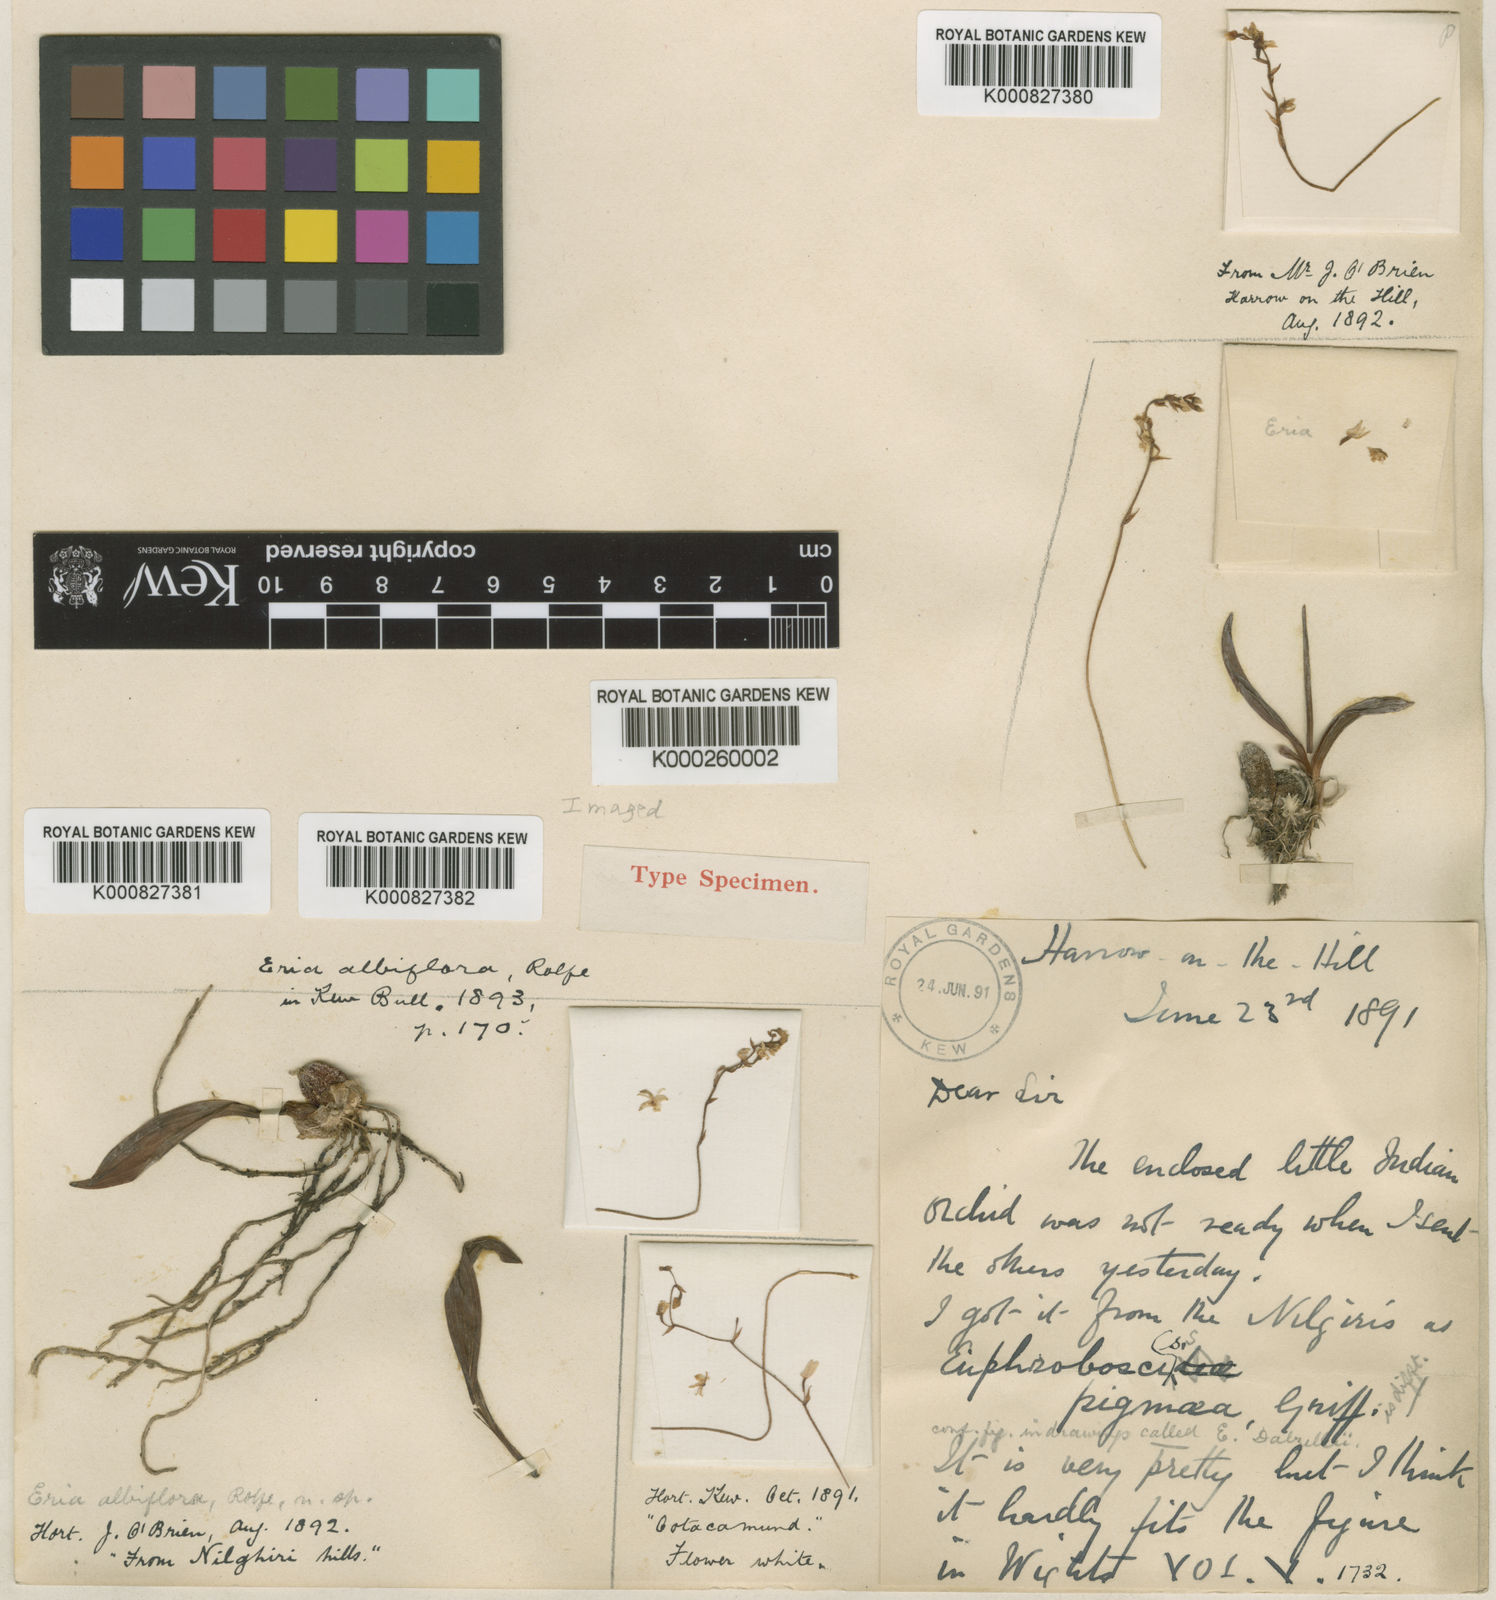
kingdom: Plantae
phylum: Tracheophyta
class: Liliopsida
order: Asparagales
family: Orchidaceae
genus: Porpax
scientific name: Porpax albiflora
